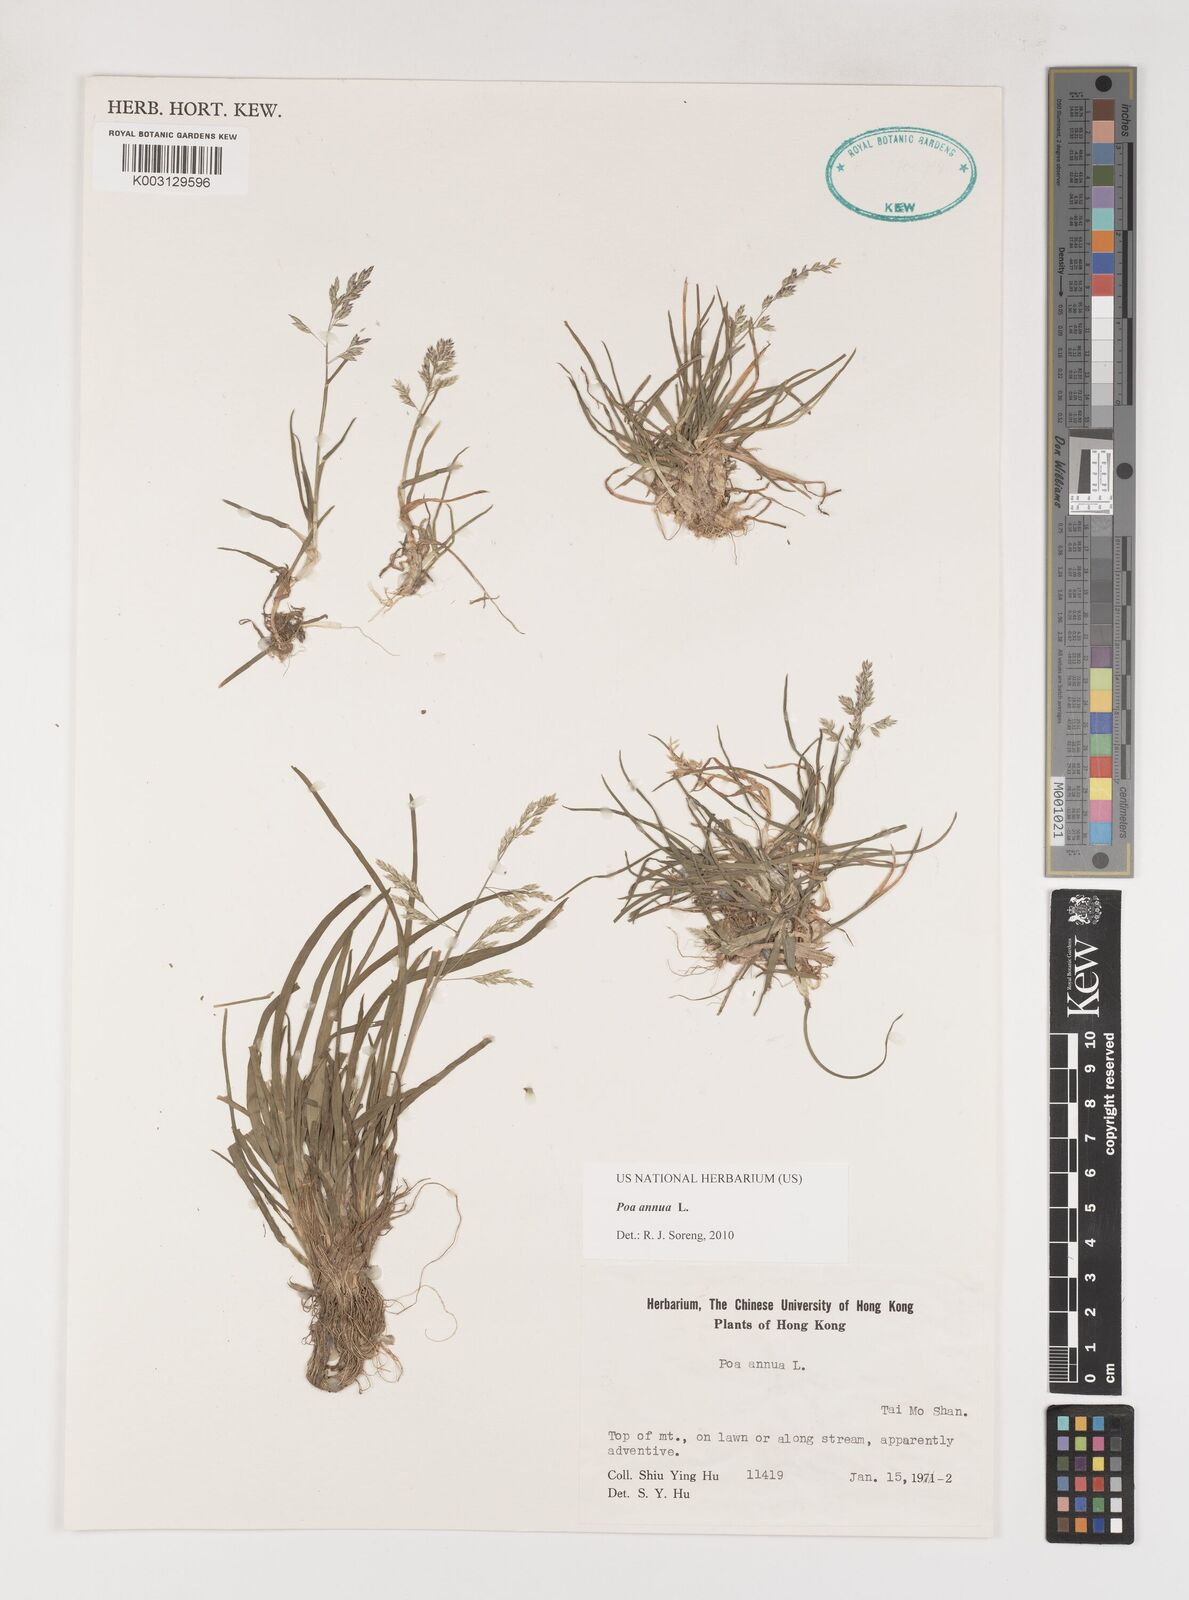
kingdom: Plantae
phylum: Tracheophyta
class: Liliopsida
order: Poales
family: Poaceae
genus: Poa
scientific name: Poa annua
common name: Annual bluegrass
